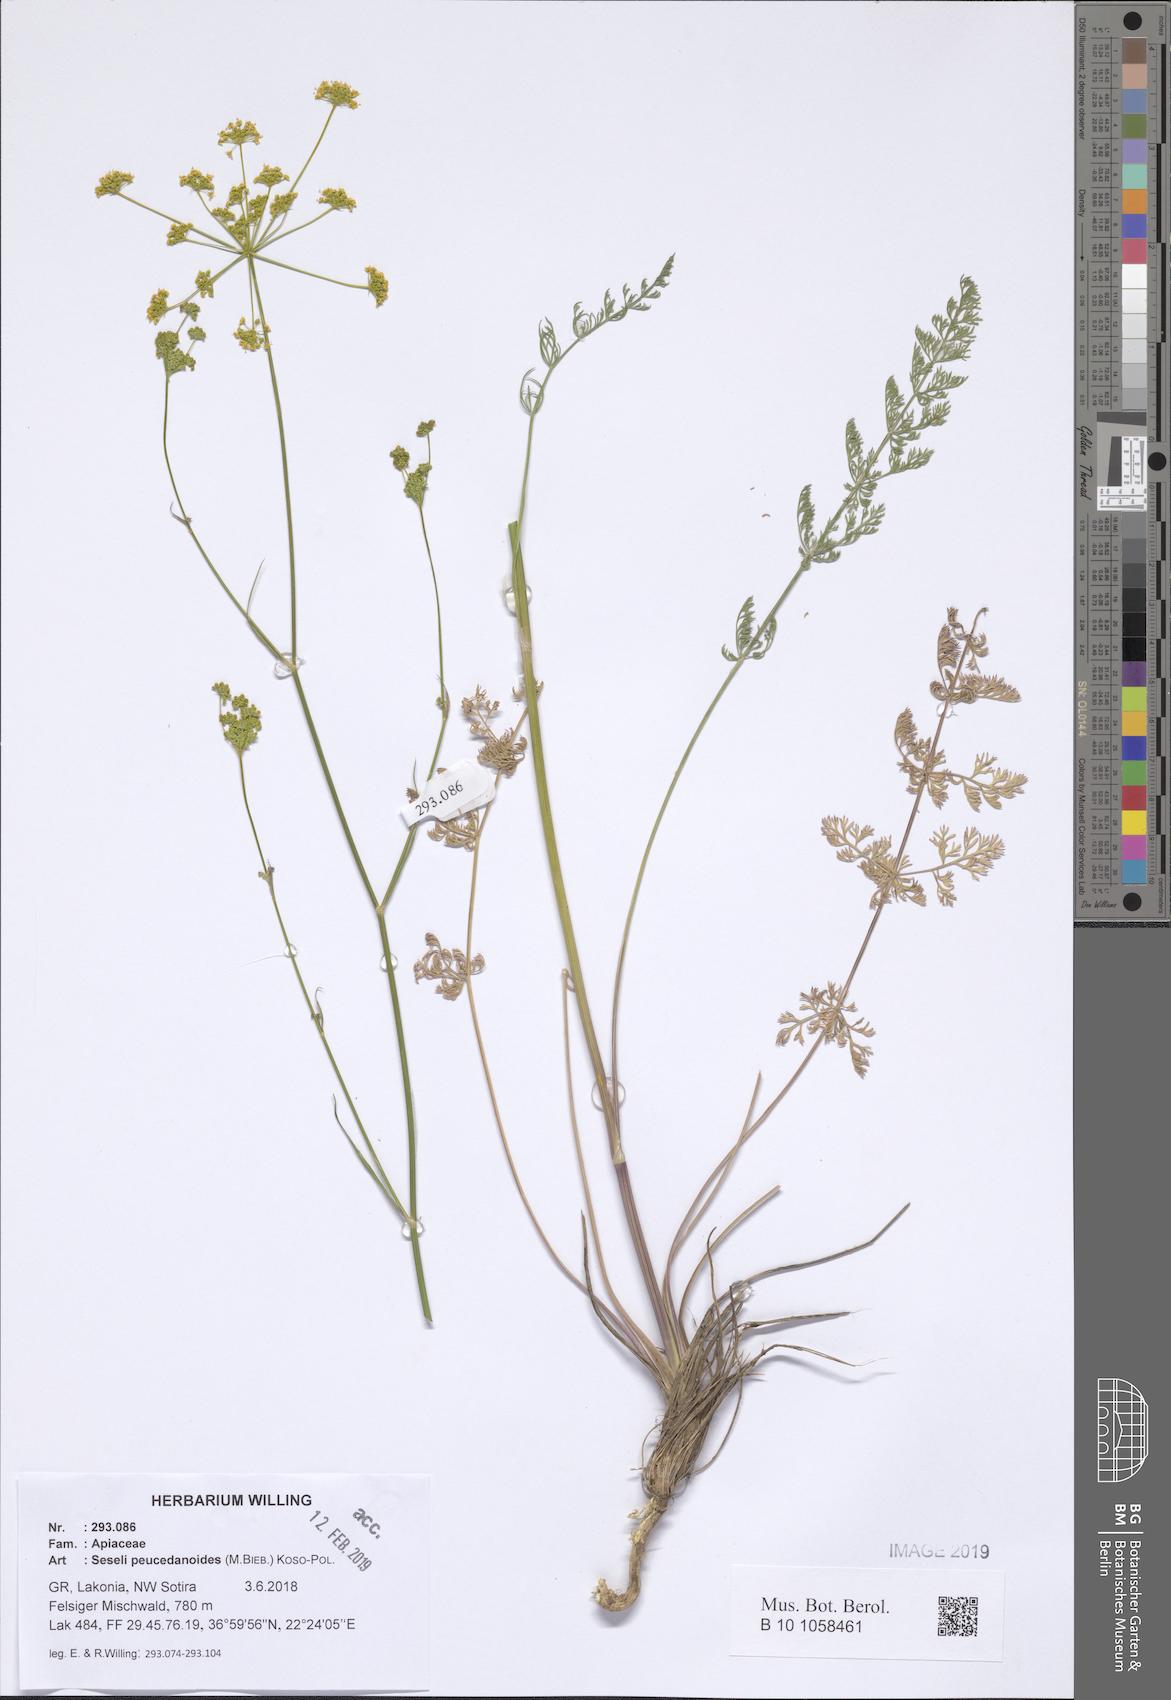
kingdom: Plantae
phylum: Tracheophyta
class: Magnoliopsida
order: Apiales
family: Apiaceae
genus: Gasparinia
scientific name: Gasparinia peucedanoides
